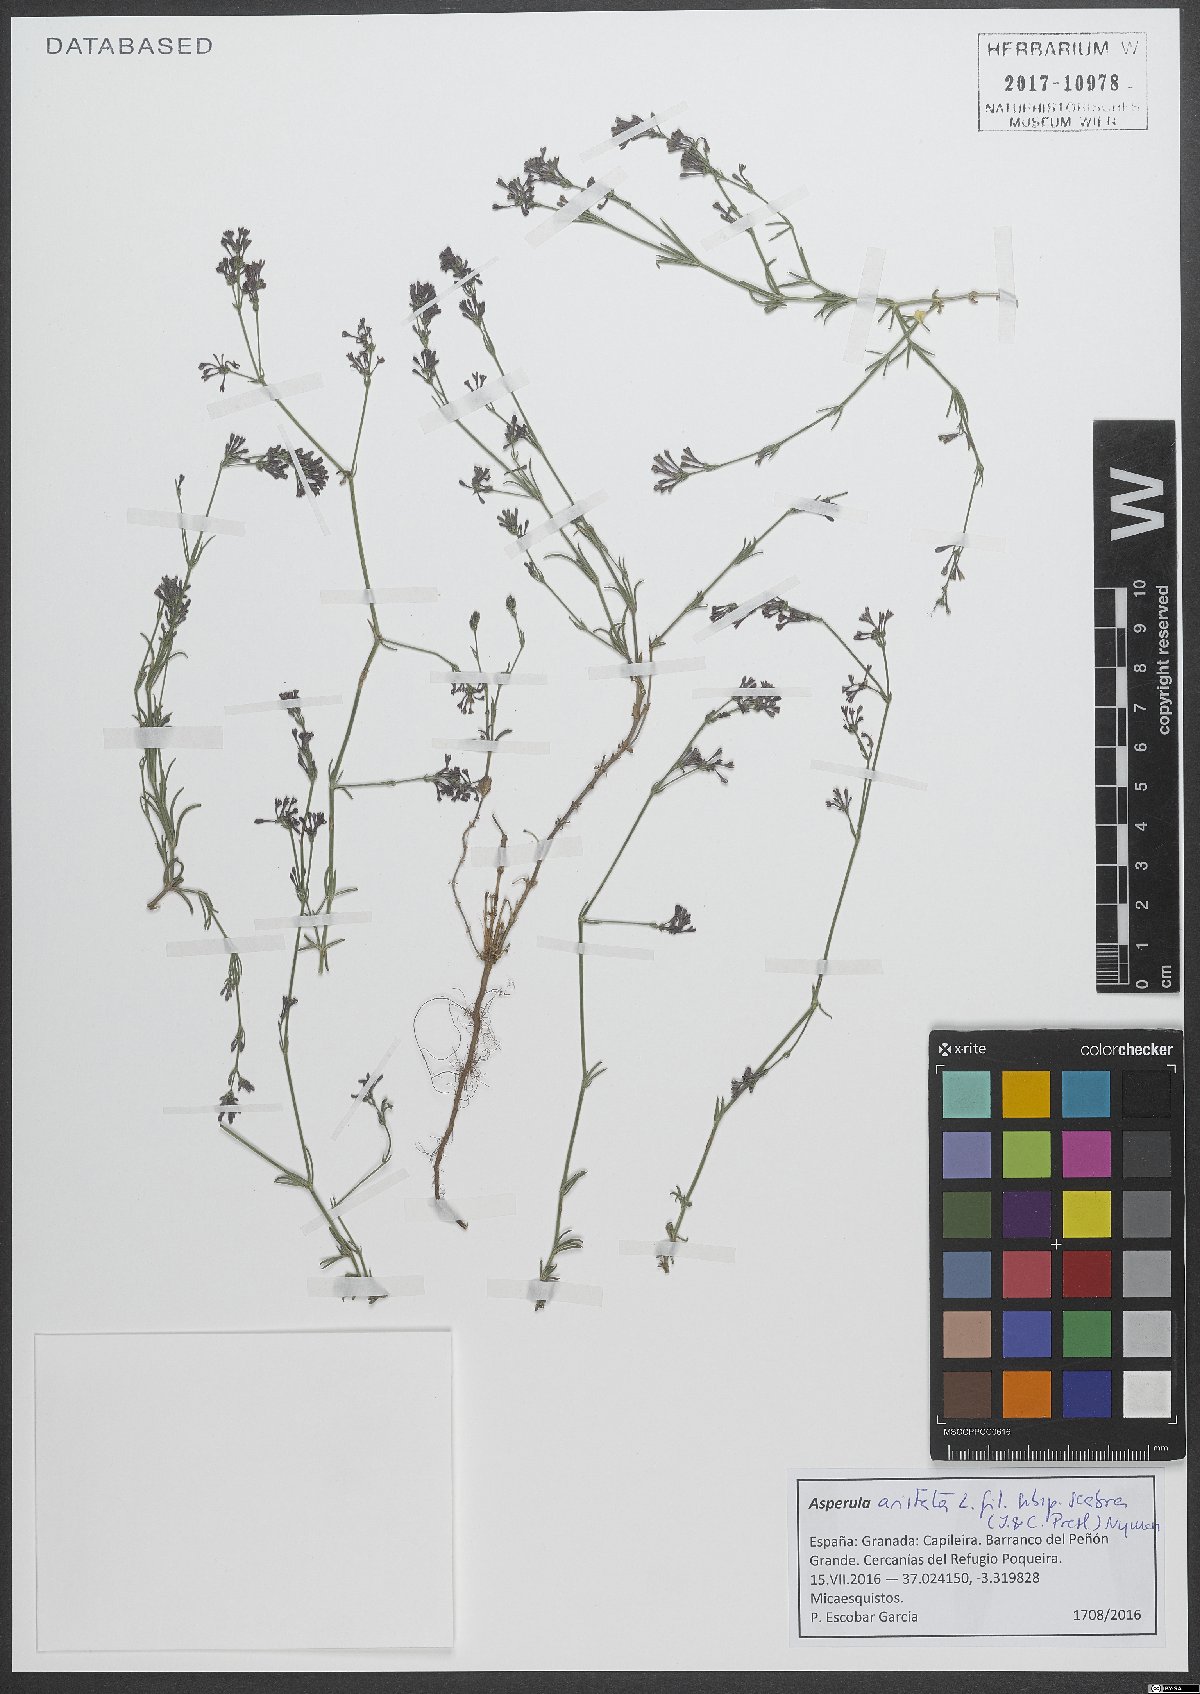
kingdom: Plantae
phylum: Tracheophyta
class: Magnoliopsida
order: Gentianales
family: Rubiaceae
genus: Cynanchica
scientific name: Cynanchica aristata
